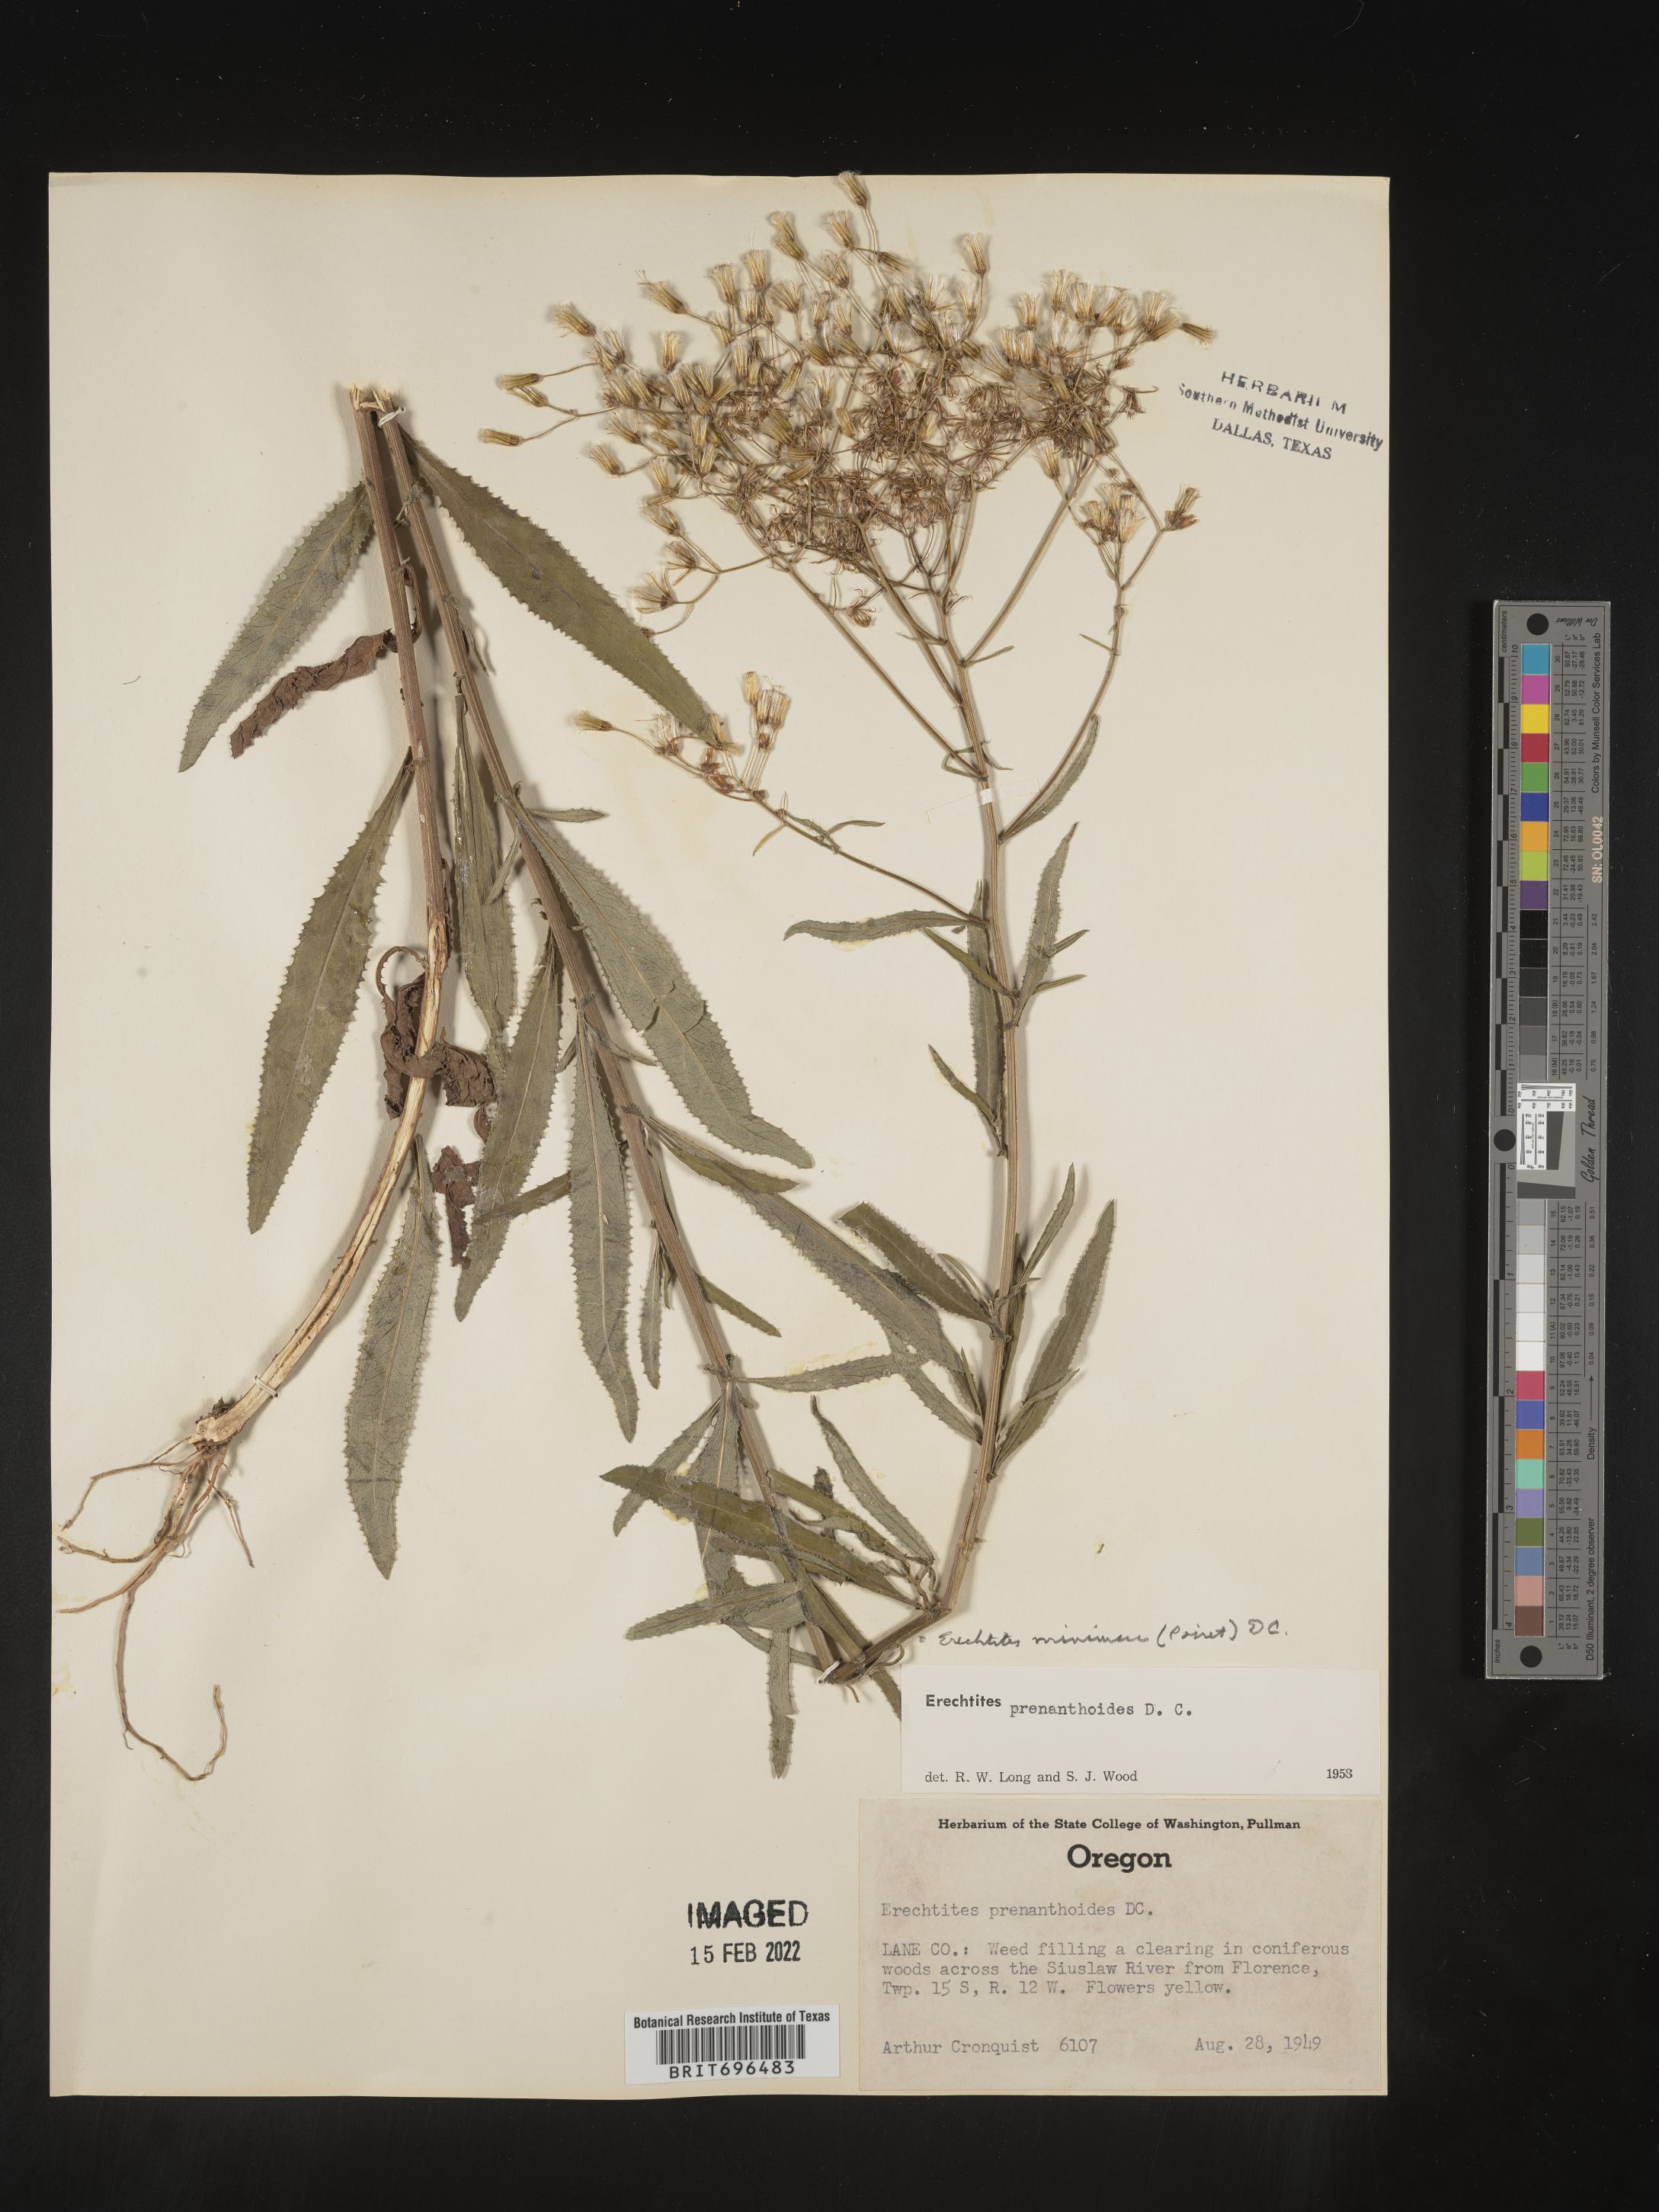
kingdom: Plantae
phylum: Tracheophyta
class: Magnoliopsida
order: Asterales
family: Asteraceae
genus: Senecio
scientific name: Senecio minimus
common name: Toothed fireweed
